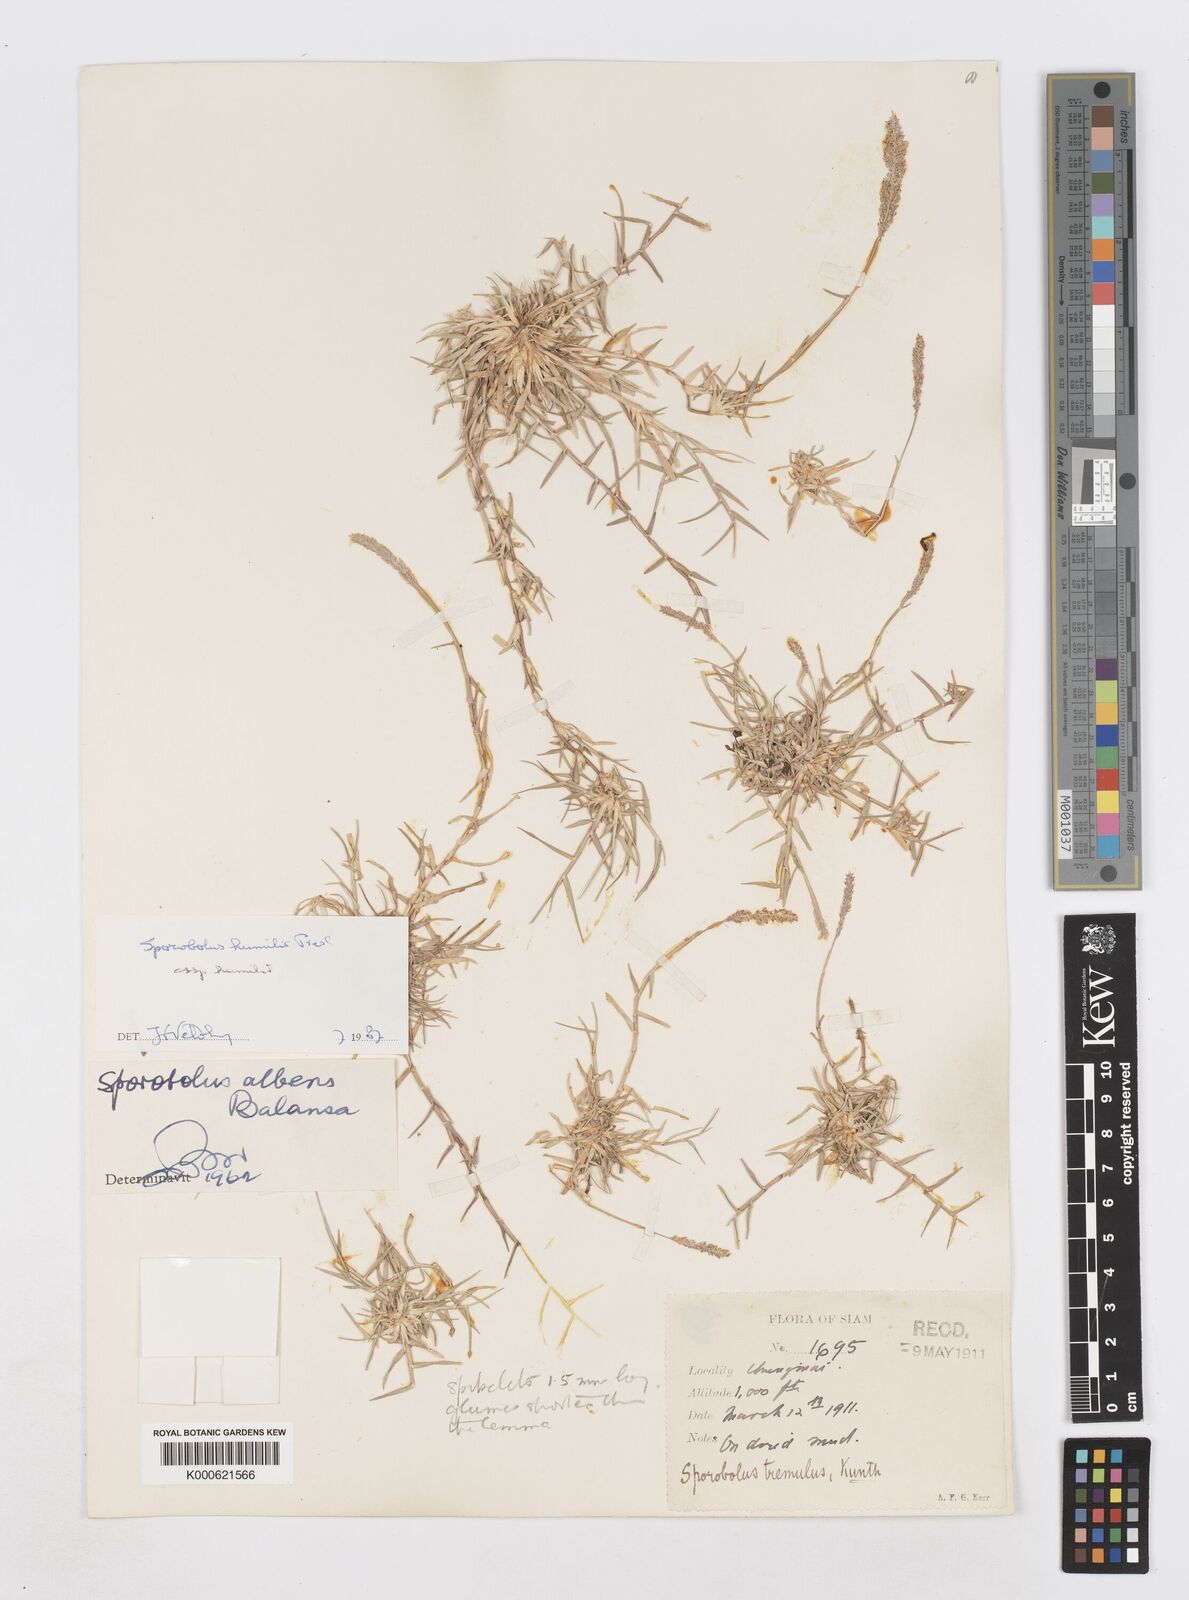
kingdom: Plantae
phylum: Tracheophyta
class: Liliopsida
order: Poales
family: Poaceae
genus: Sporobolus
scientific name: Sporobolus humilis
